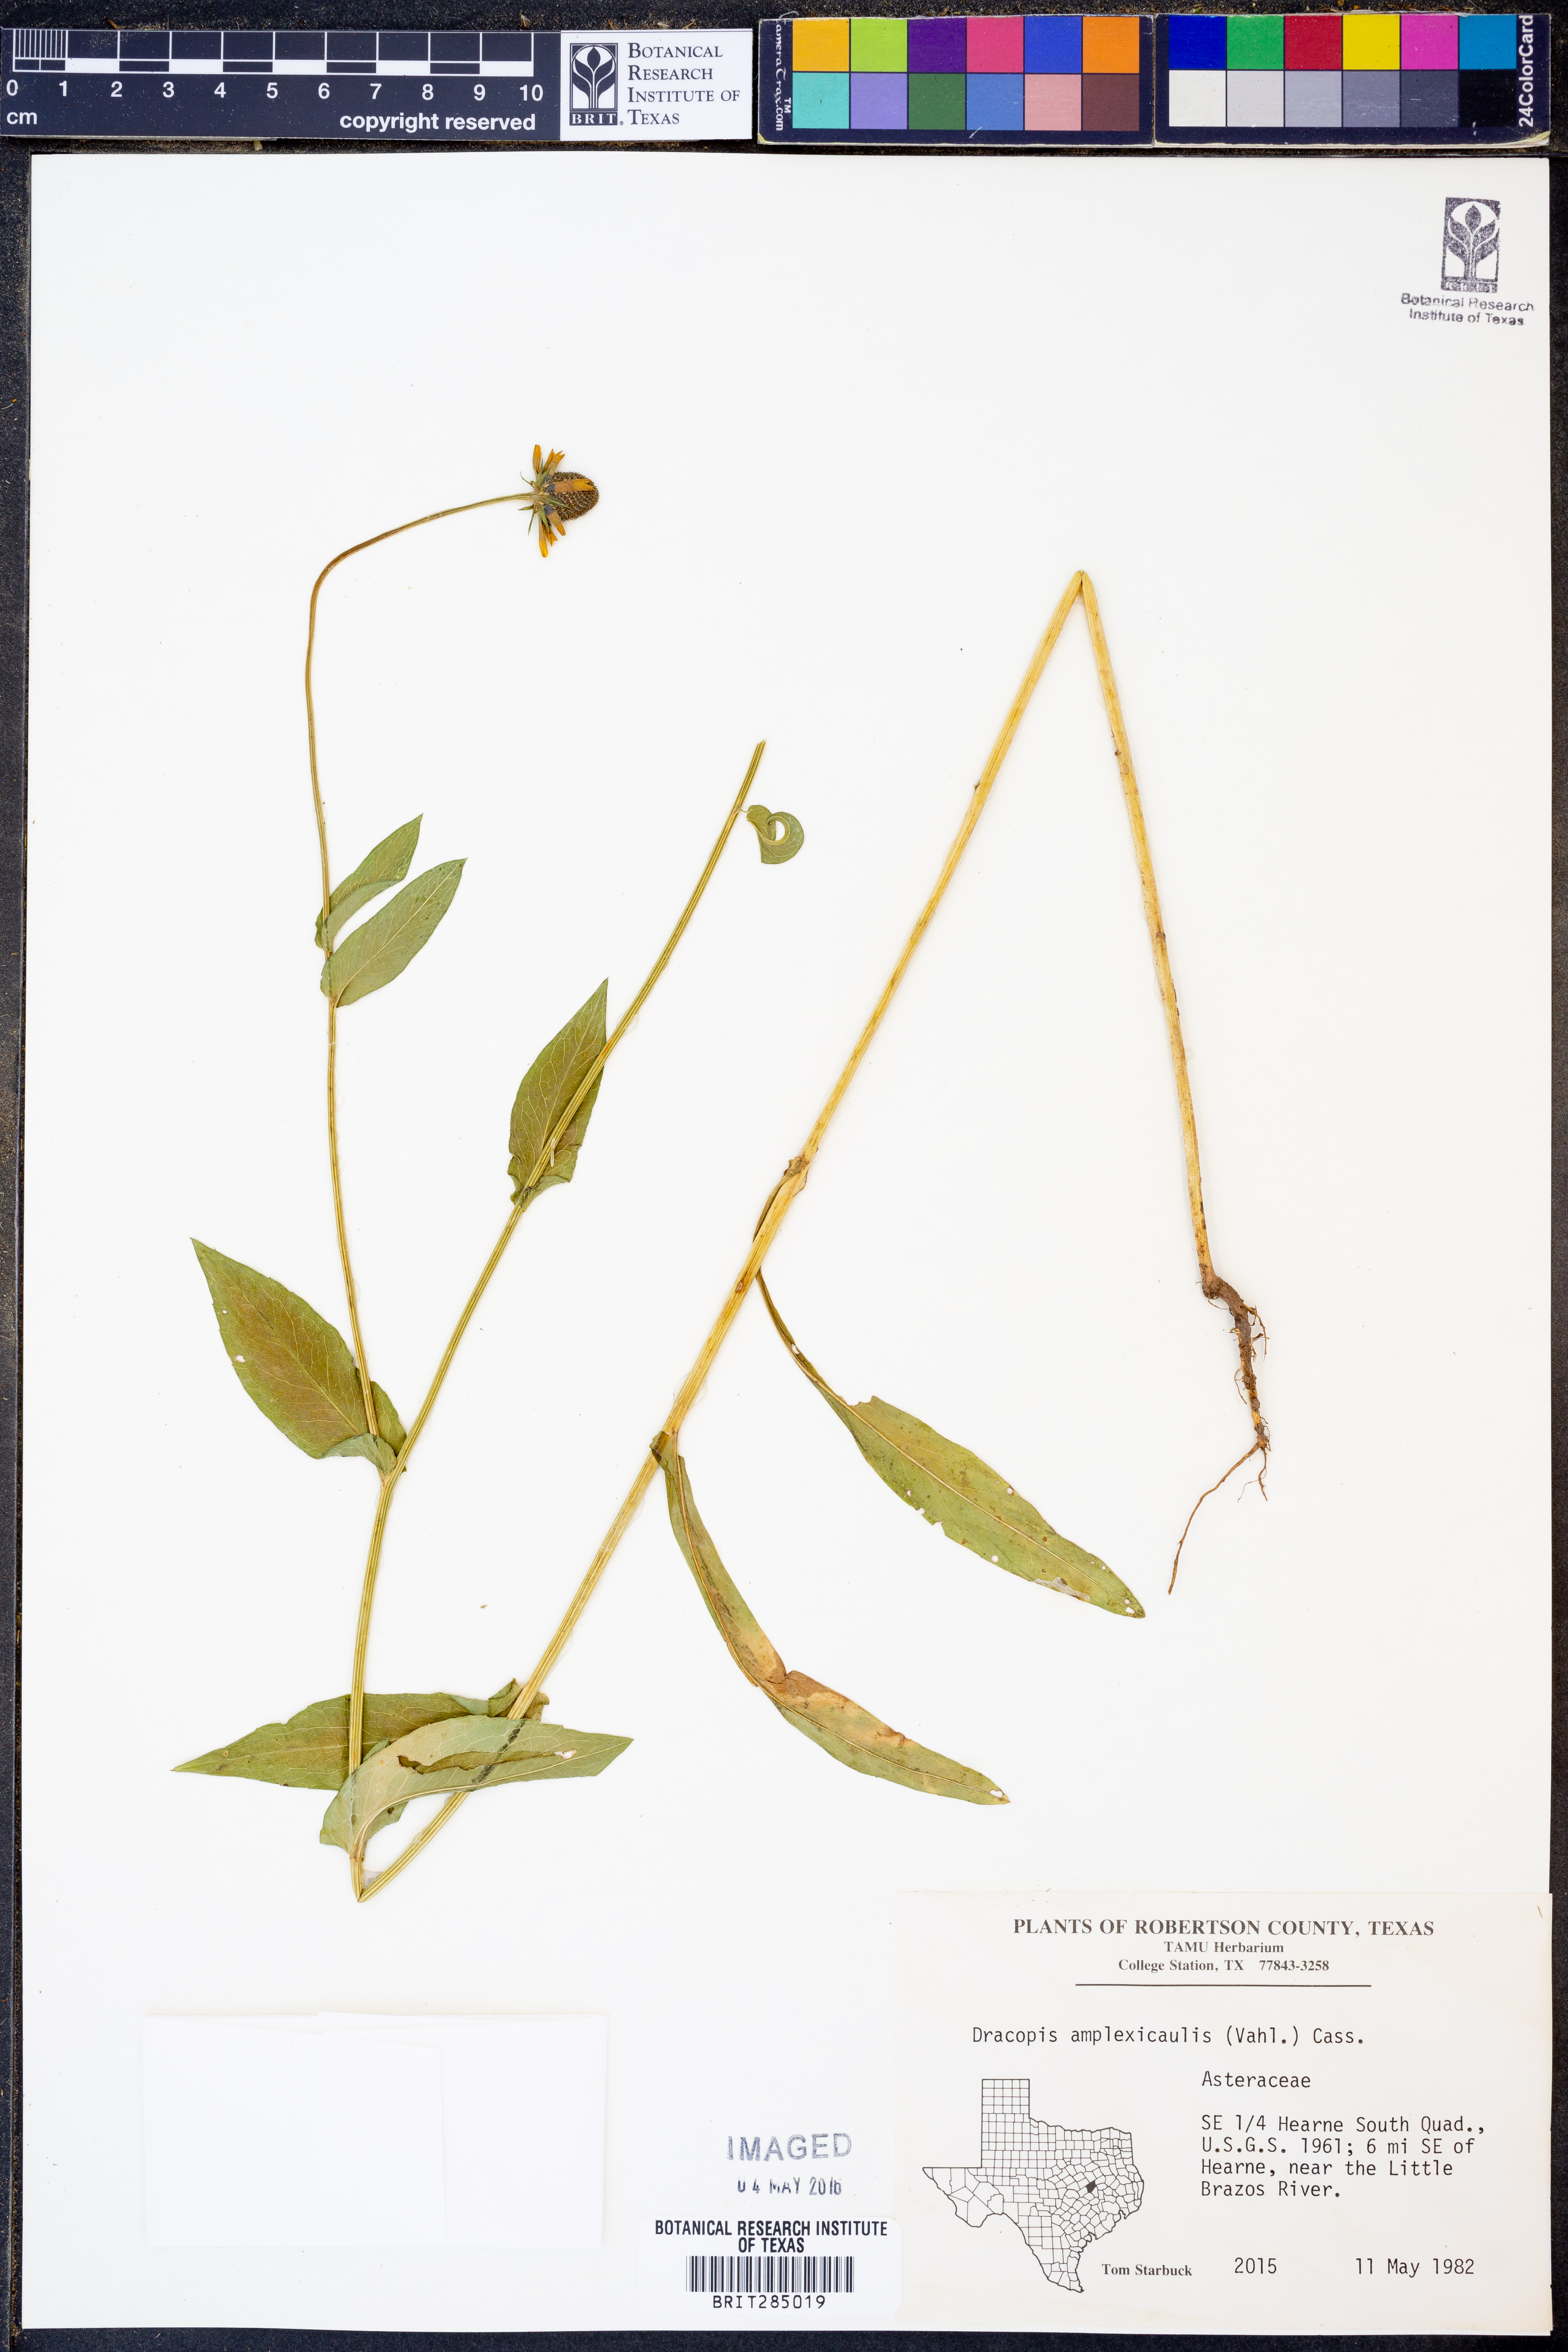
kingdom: Plantae
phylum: Tracheophyta
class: Magnoliopsida
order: Asterales
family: Asteraceae
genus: Rudbeckia
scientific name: Rudbeckia amplexicaulis
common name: Clasping-leaf coneflower
